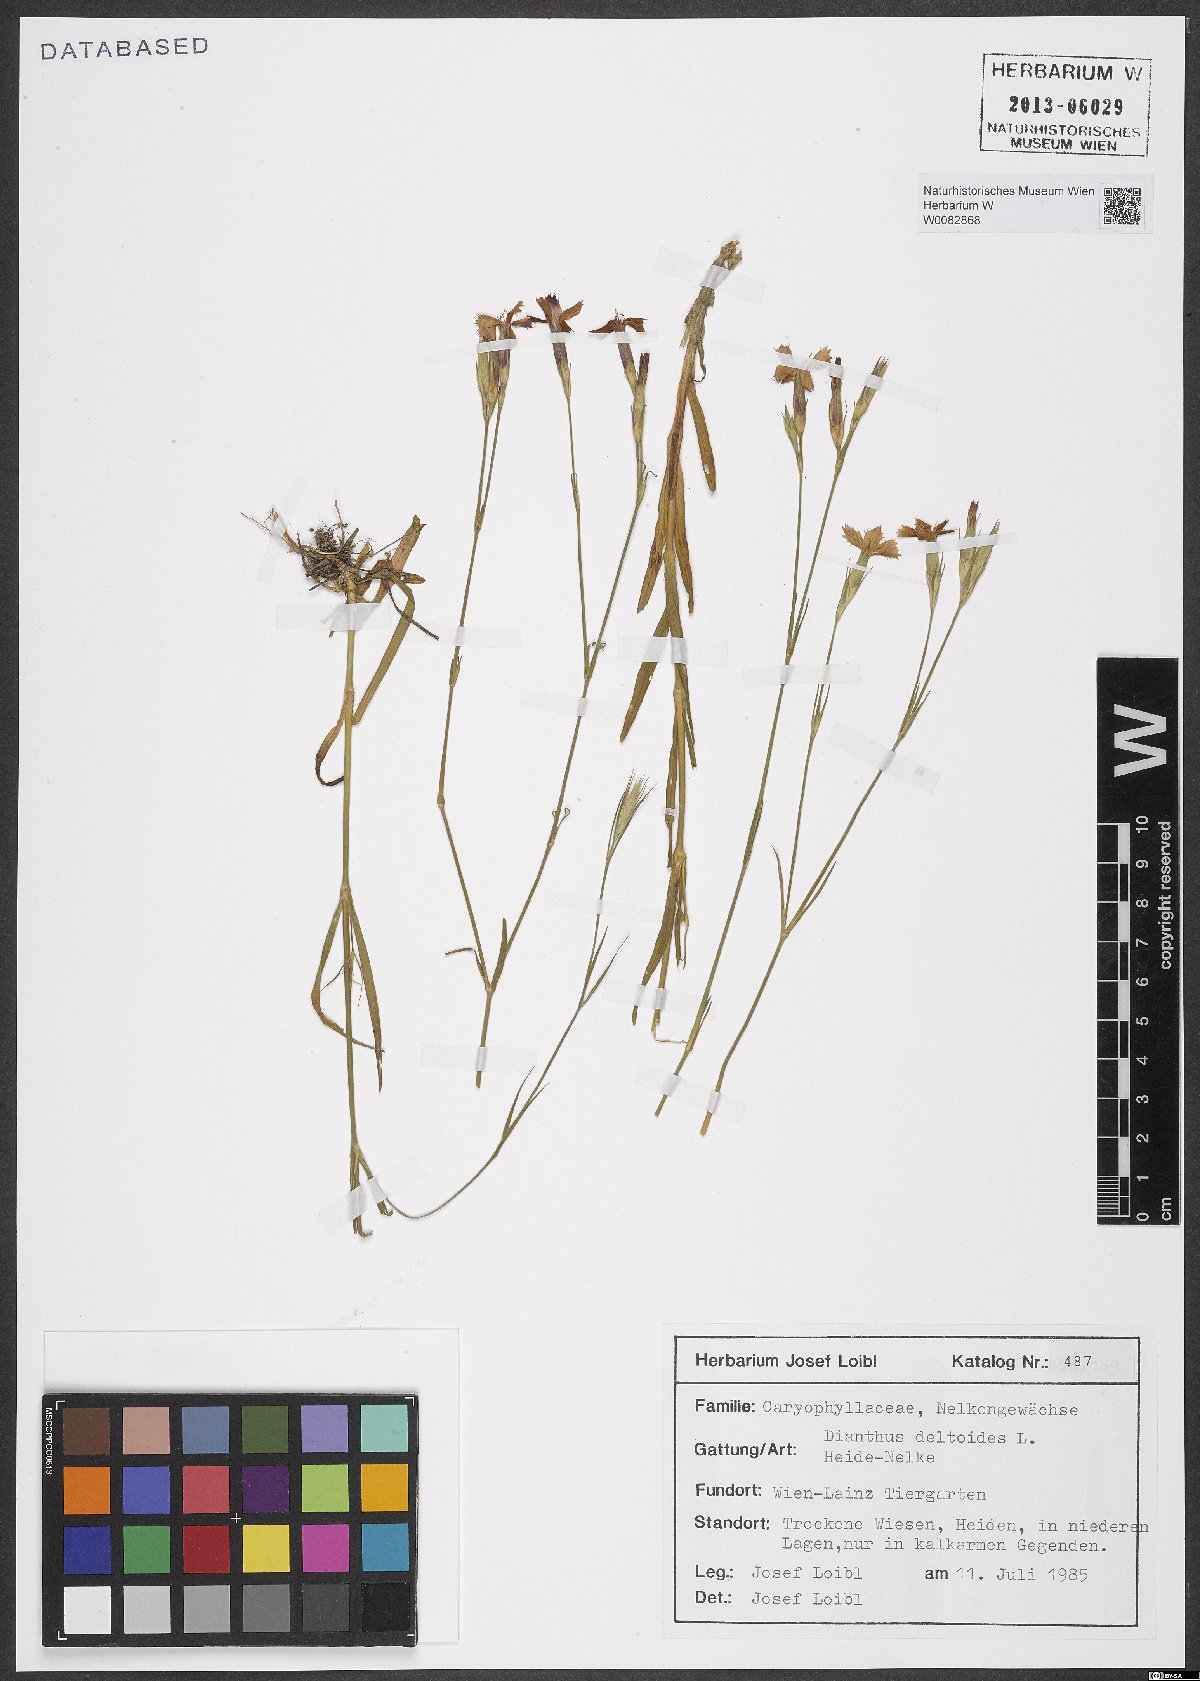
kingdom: Plantae
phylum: Tracheophyta
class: Magnoliopsida
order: Caryophyllales
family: Caryophyllaceae
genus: Dianthus
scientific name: Dianthus deltoides
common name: Maiden pink
